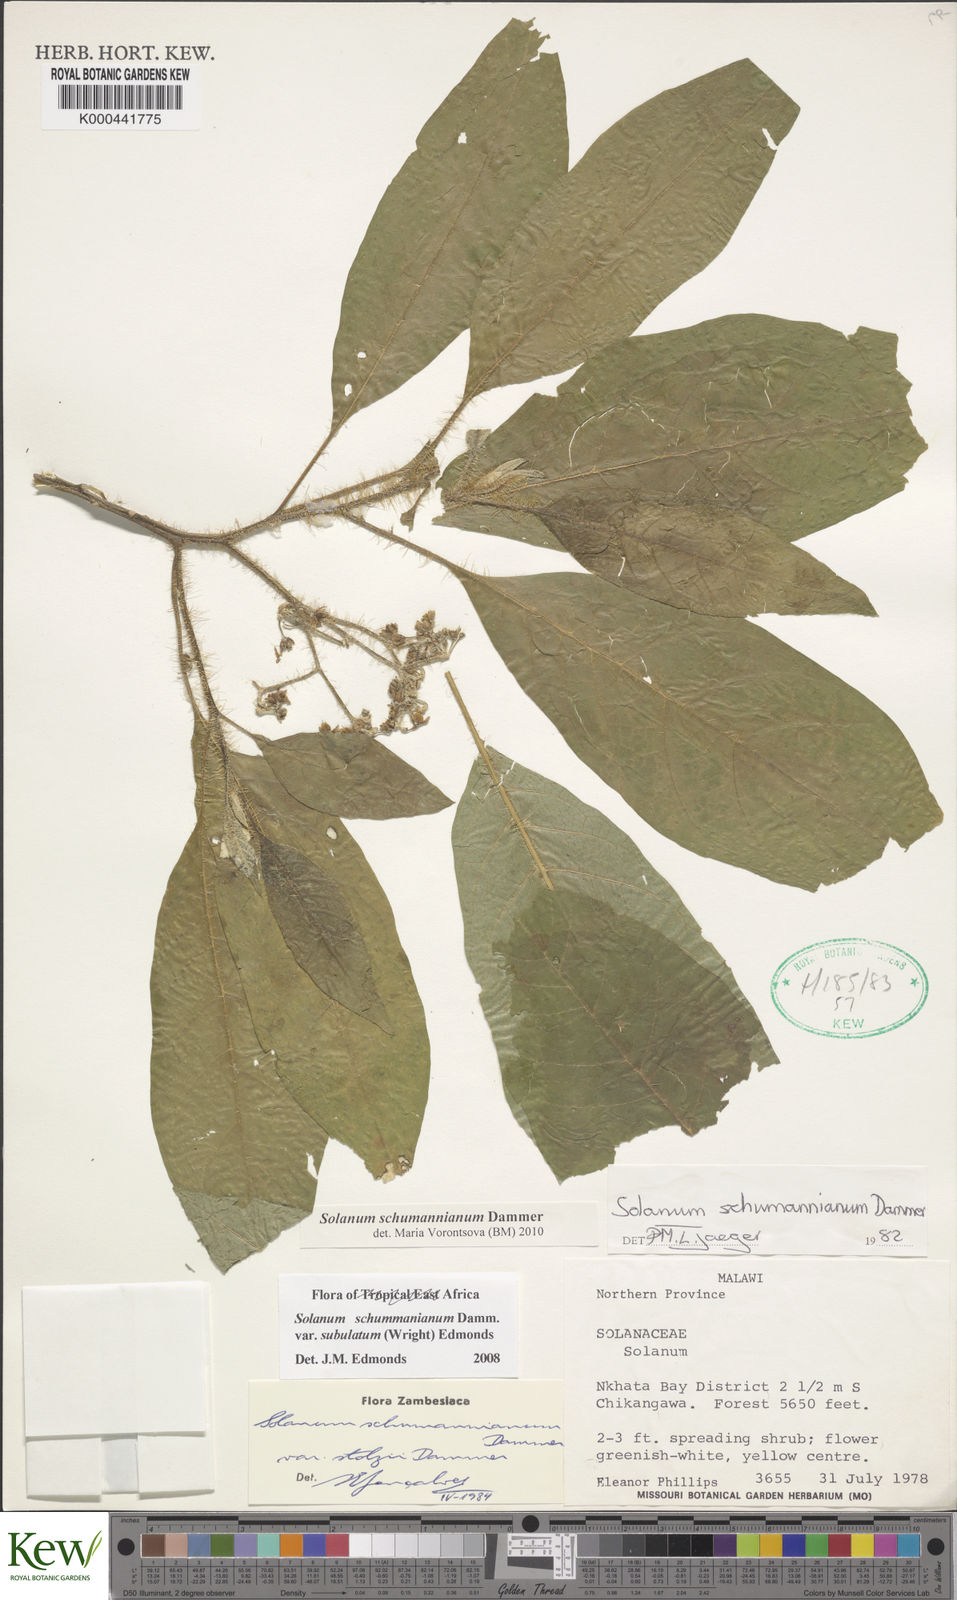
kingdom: Plantae
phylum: Tracheophyta
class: Magnoliopsida
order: Solanales
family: Solanaceae
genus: Solanum
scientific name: Solanum schumannianum
